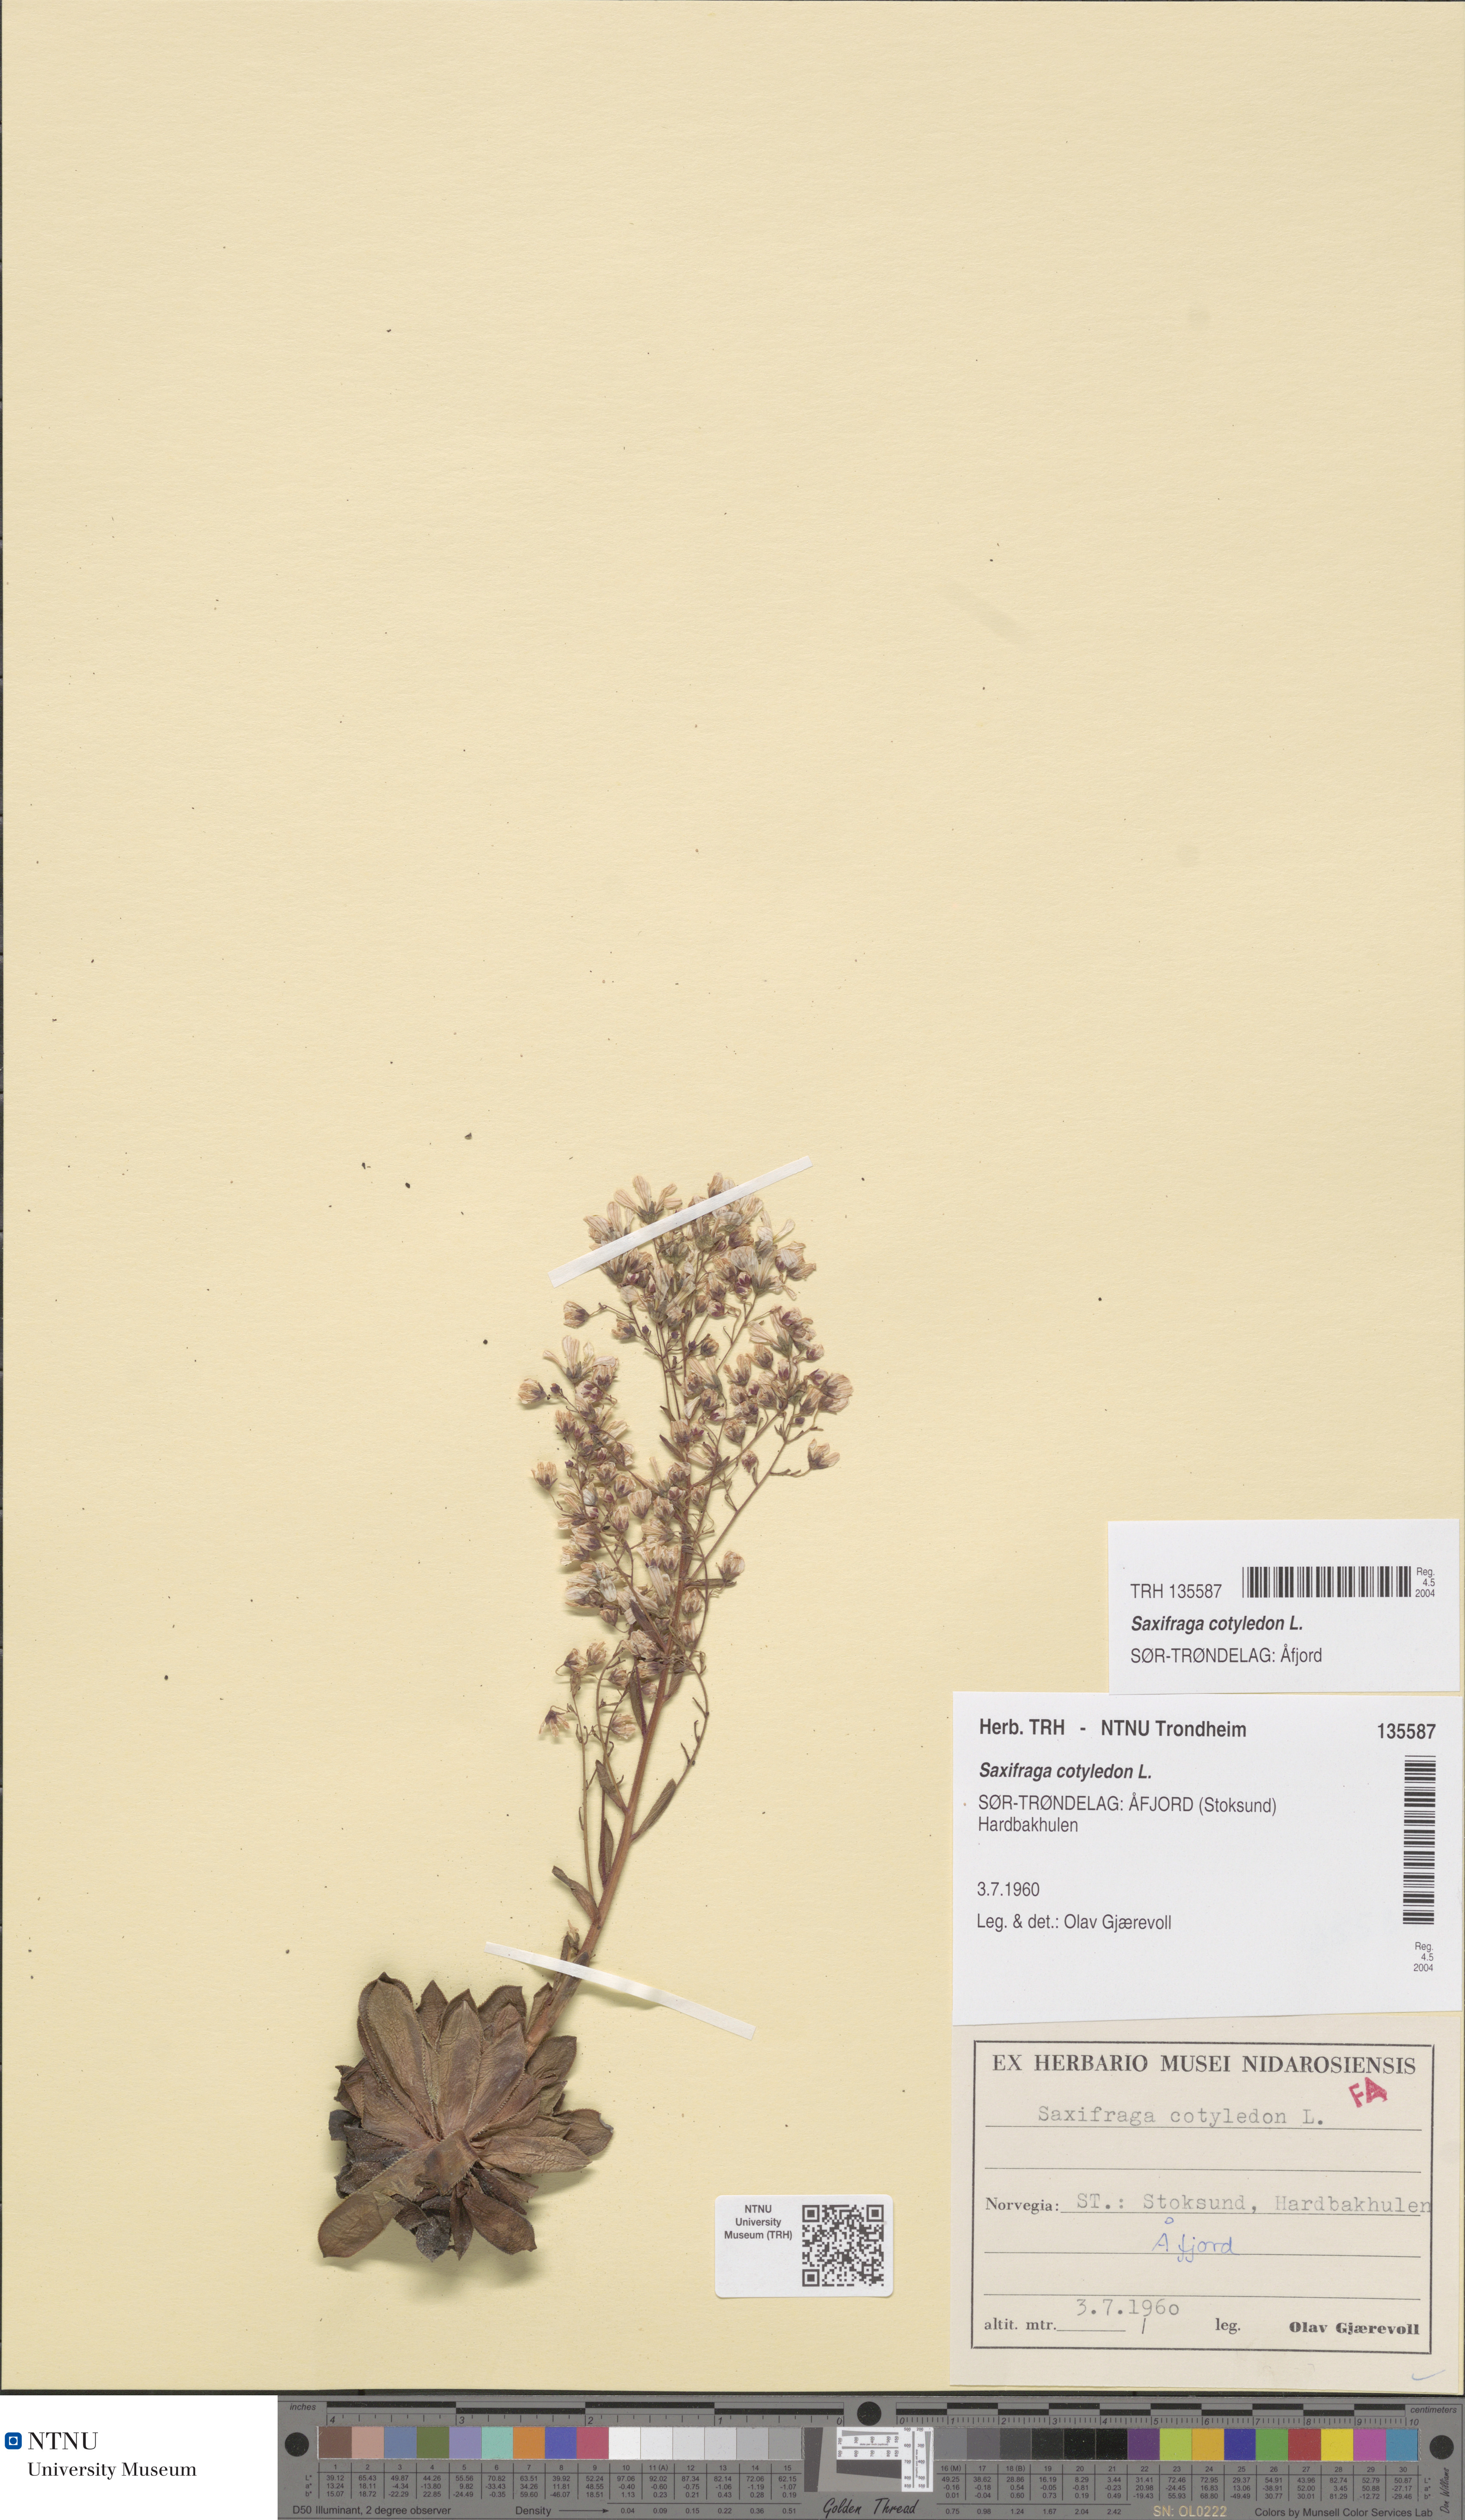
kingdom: Plantae
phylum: Tracheophyta
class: Magnoliopsida
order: Saxifragales
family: Saxifragaceae
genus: Saxifraga
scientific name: Saxifraga cotyledon
